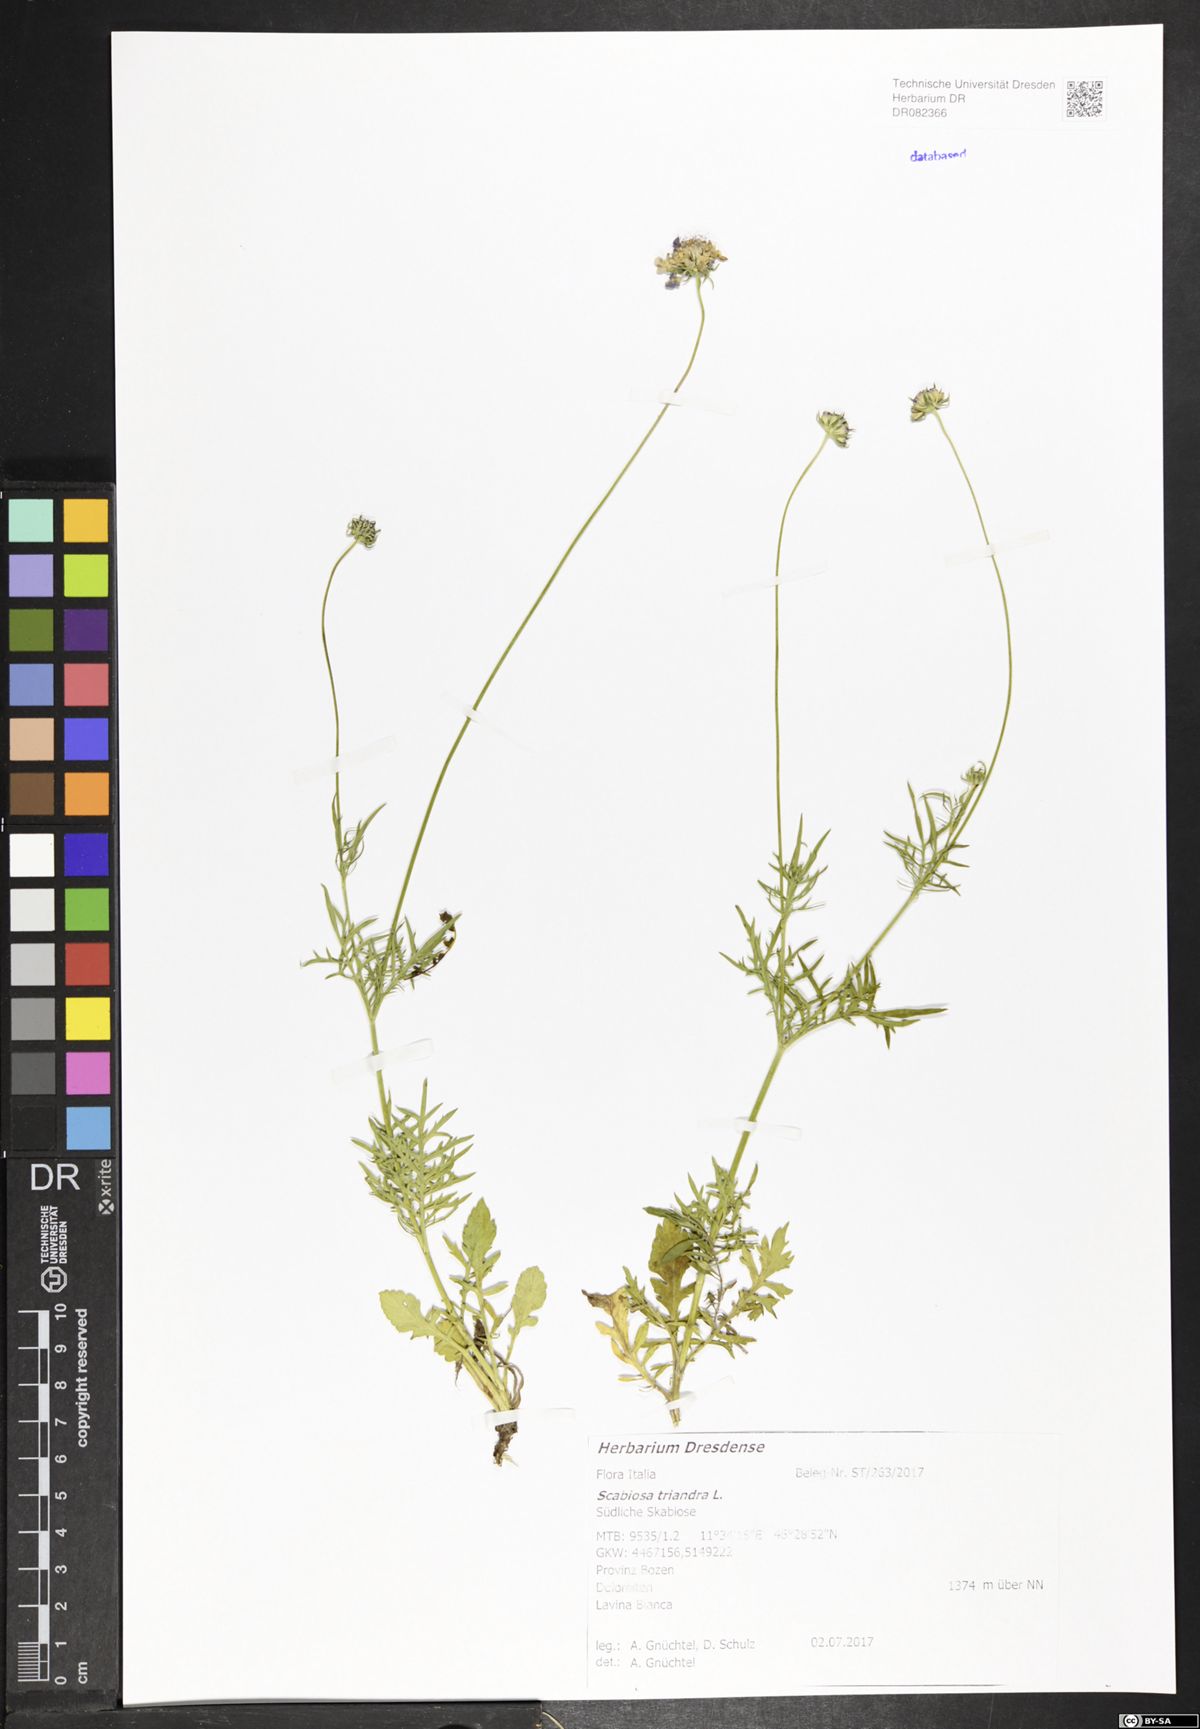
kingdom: Plantae
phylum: Tracheophyta
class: Magnoliopsida
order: Dipsacales
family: Caprifoliaceae
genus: Scabiosa
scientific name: Scabiosa triandra
